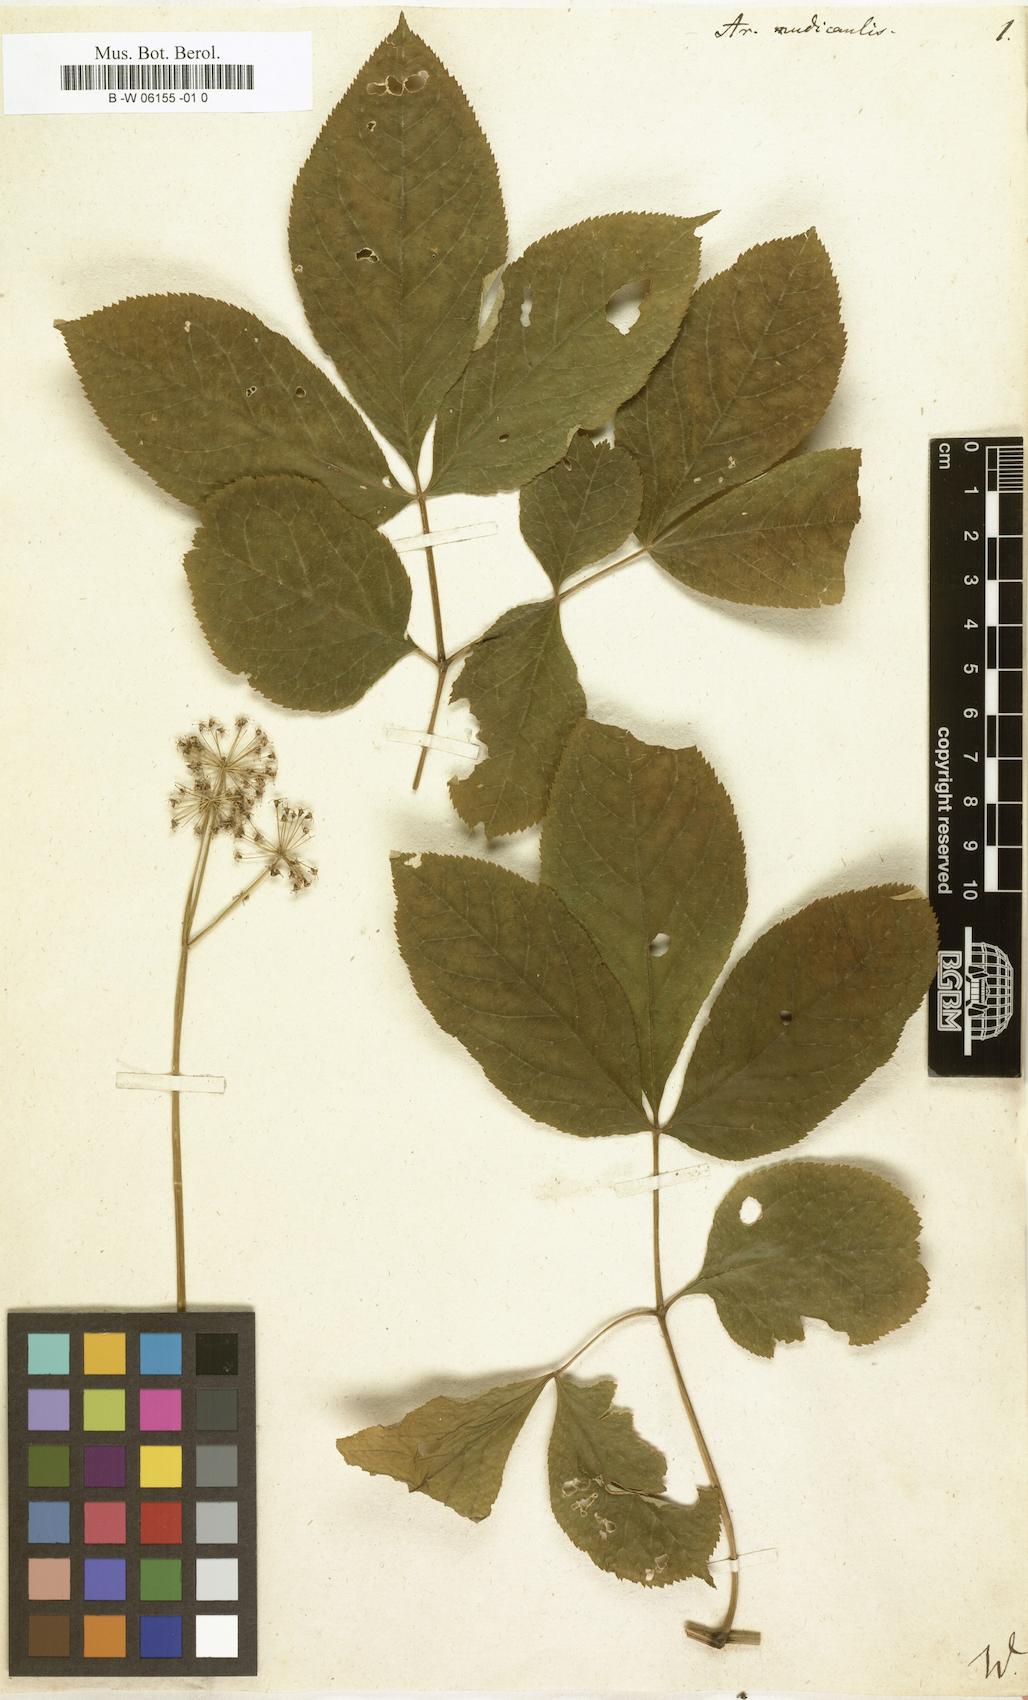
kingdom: Plantae
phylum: Tracheophyta
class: Magnoliopsida
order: Apiales
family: Araliaceae
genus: Aralia
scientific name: Aralia nudicaulis
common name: Wild sarsaparilla
